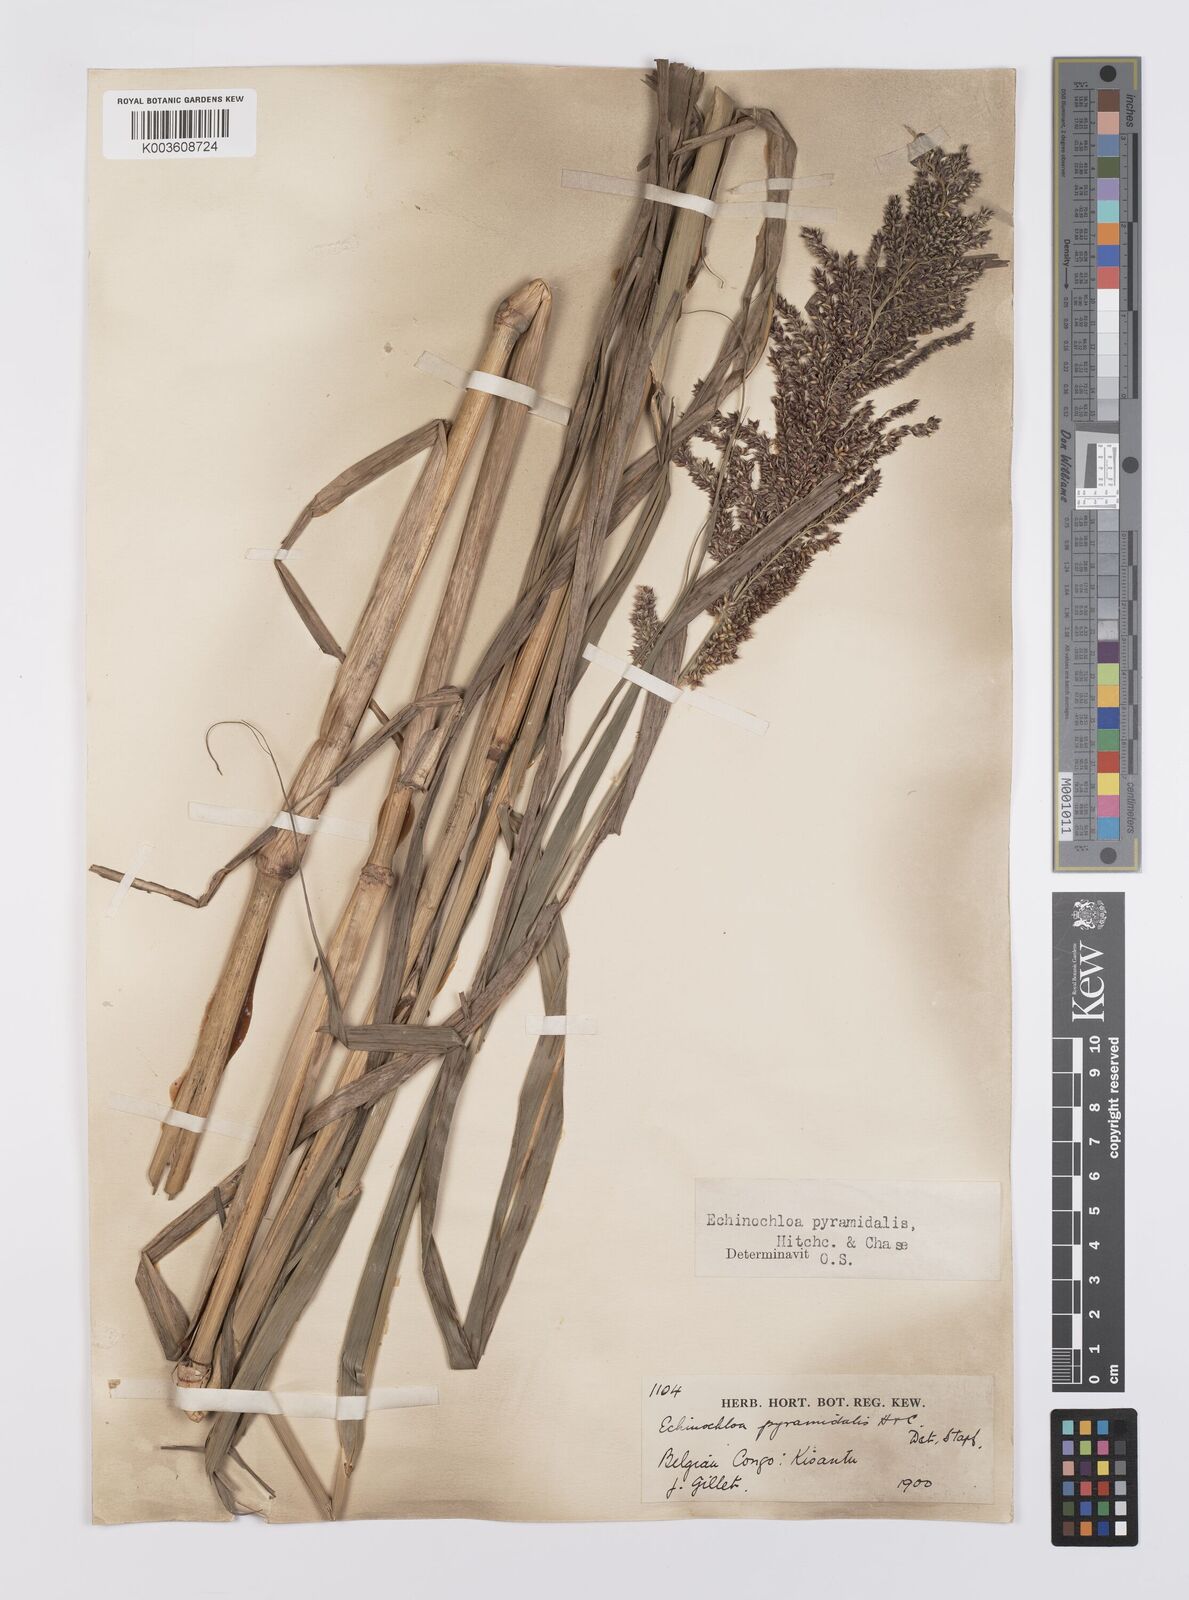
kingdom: Plantae
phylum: Tracheophyta
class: Liliopsida
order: Poales
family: Poaceae
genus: Echinochloa
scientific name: Echinochloa pyramidalis
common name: Antelope grass
